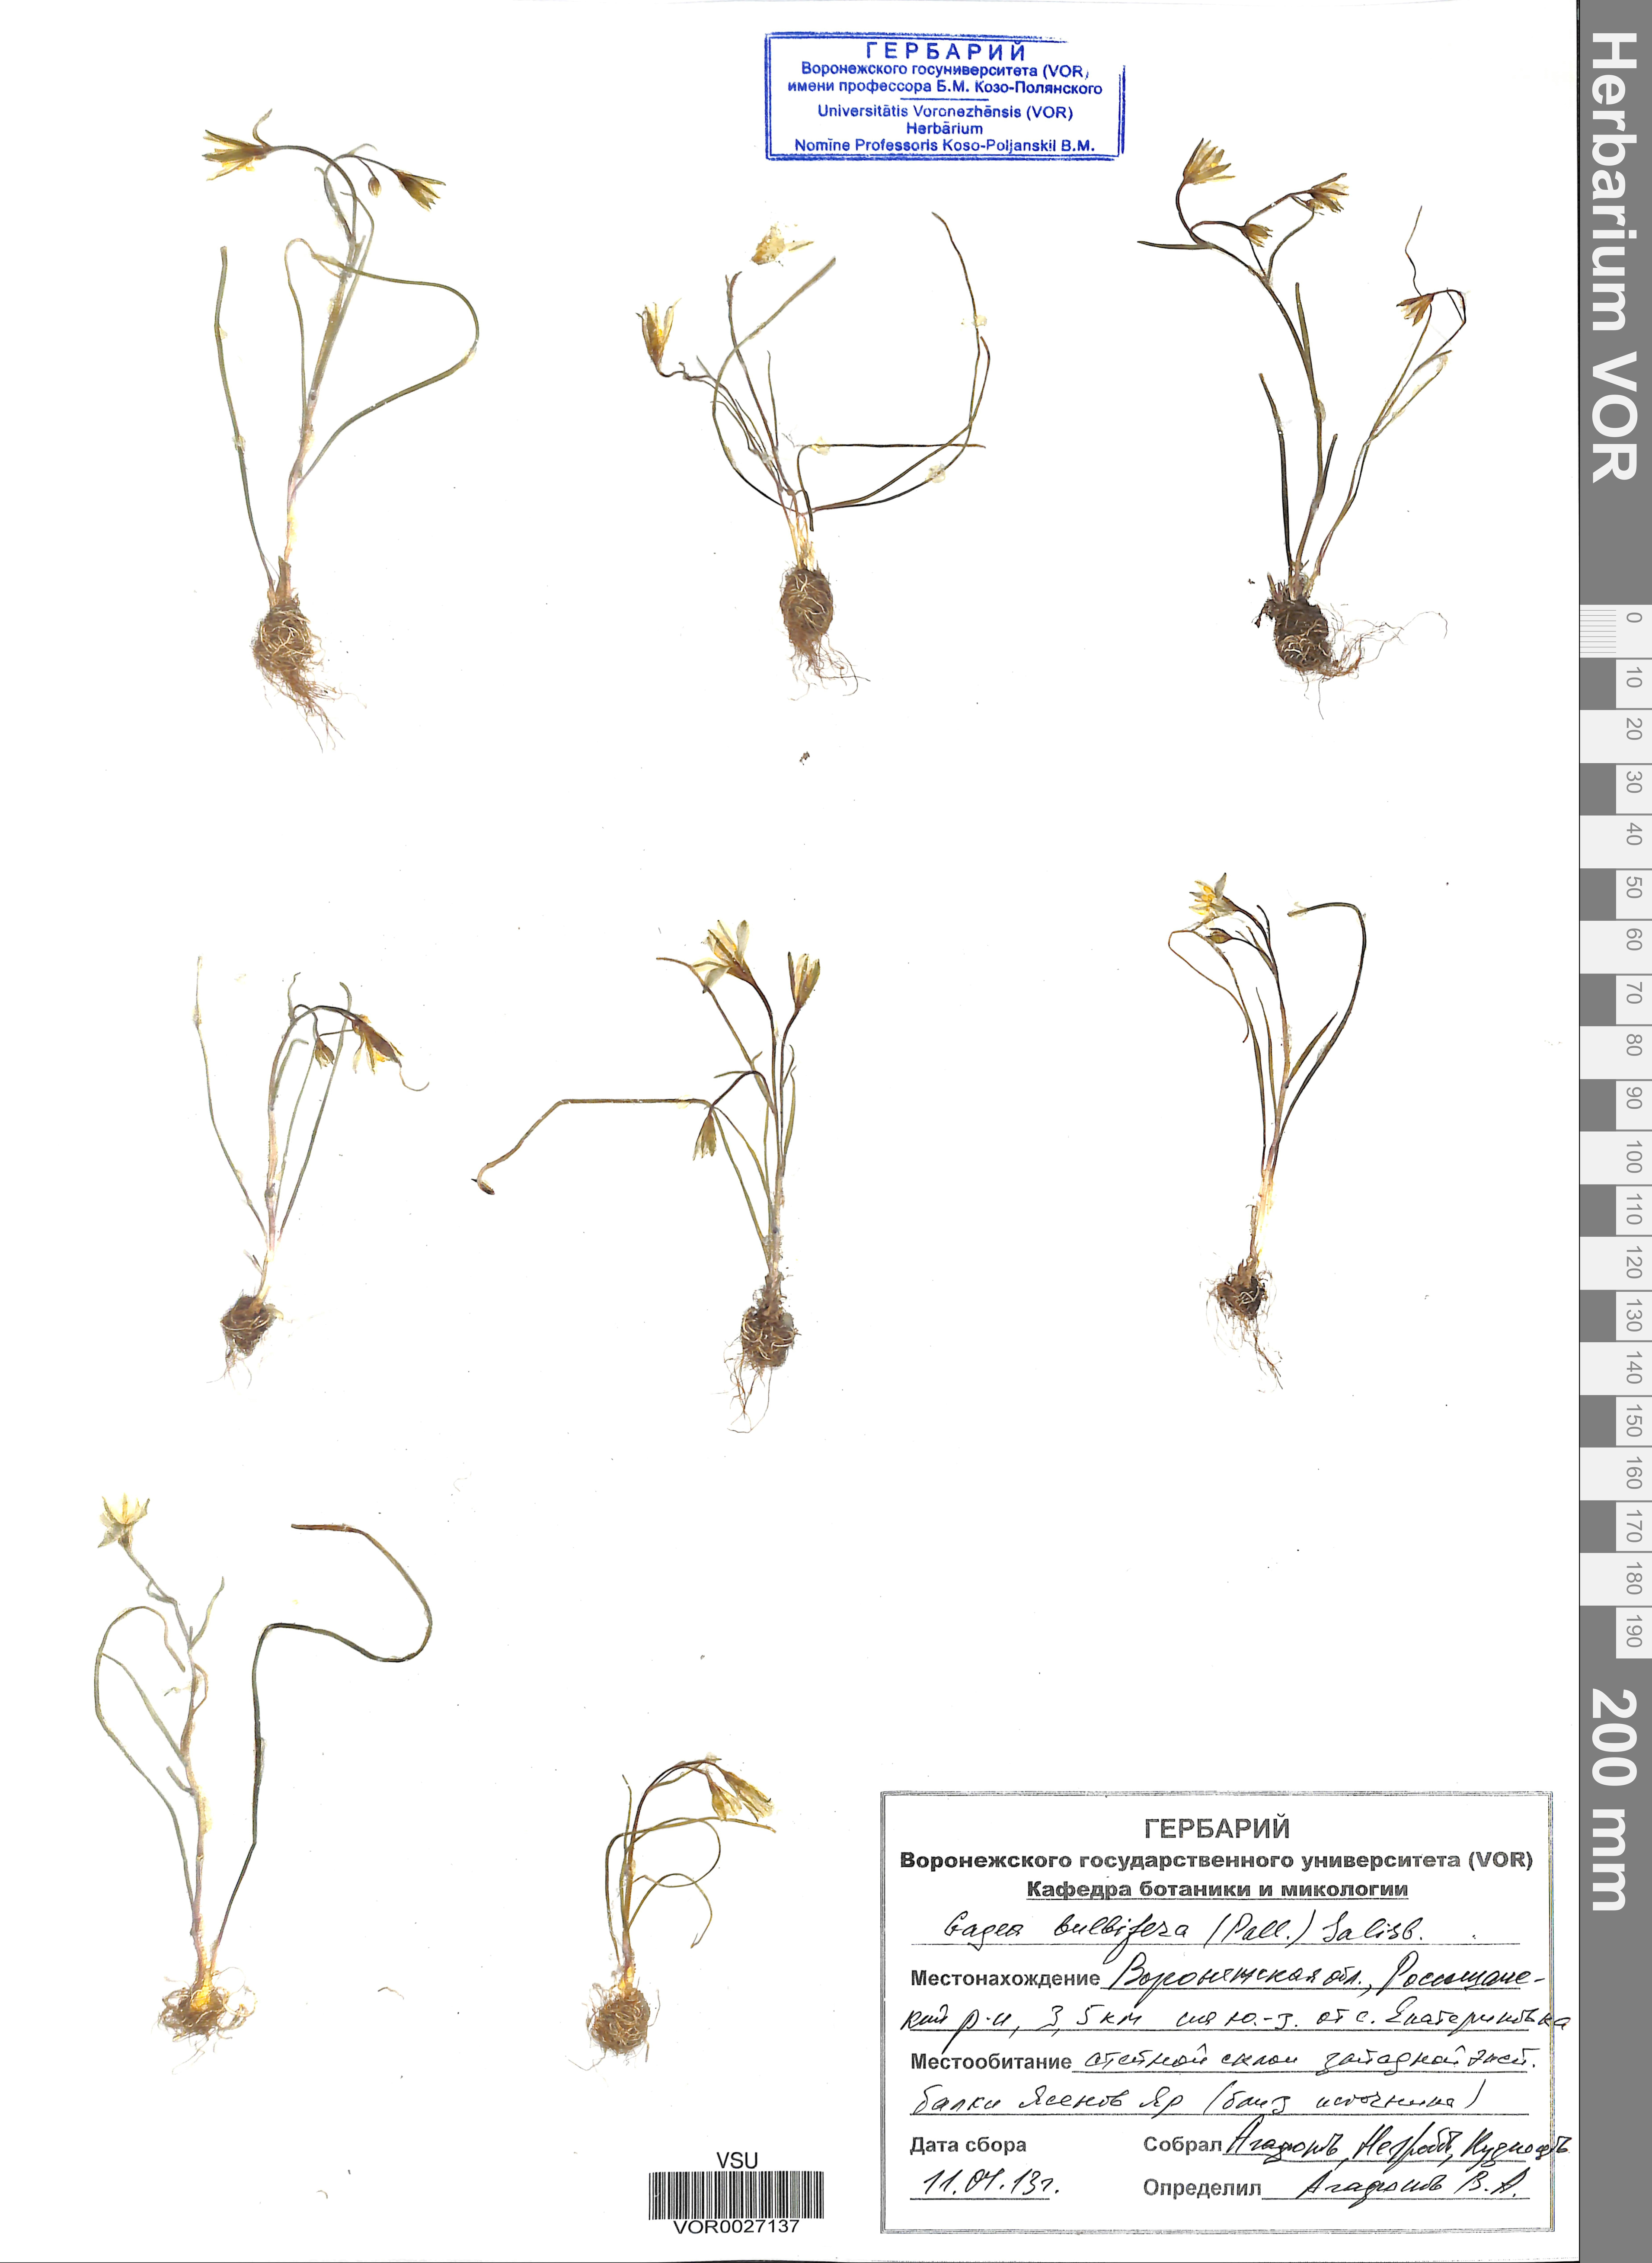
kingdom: Plantae
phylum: Tracheophyta
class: Liliopsida
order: Liliales
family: Liliaceae
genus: Gagea
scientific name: Gagea bulbifera
